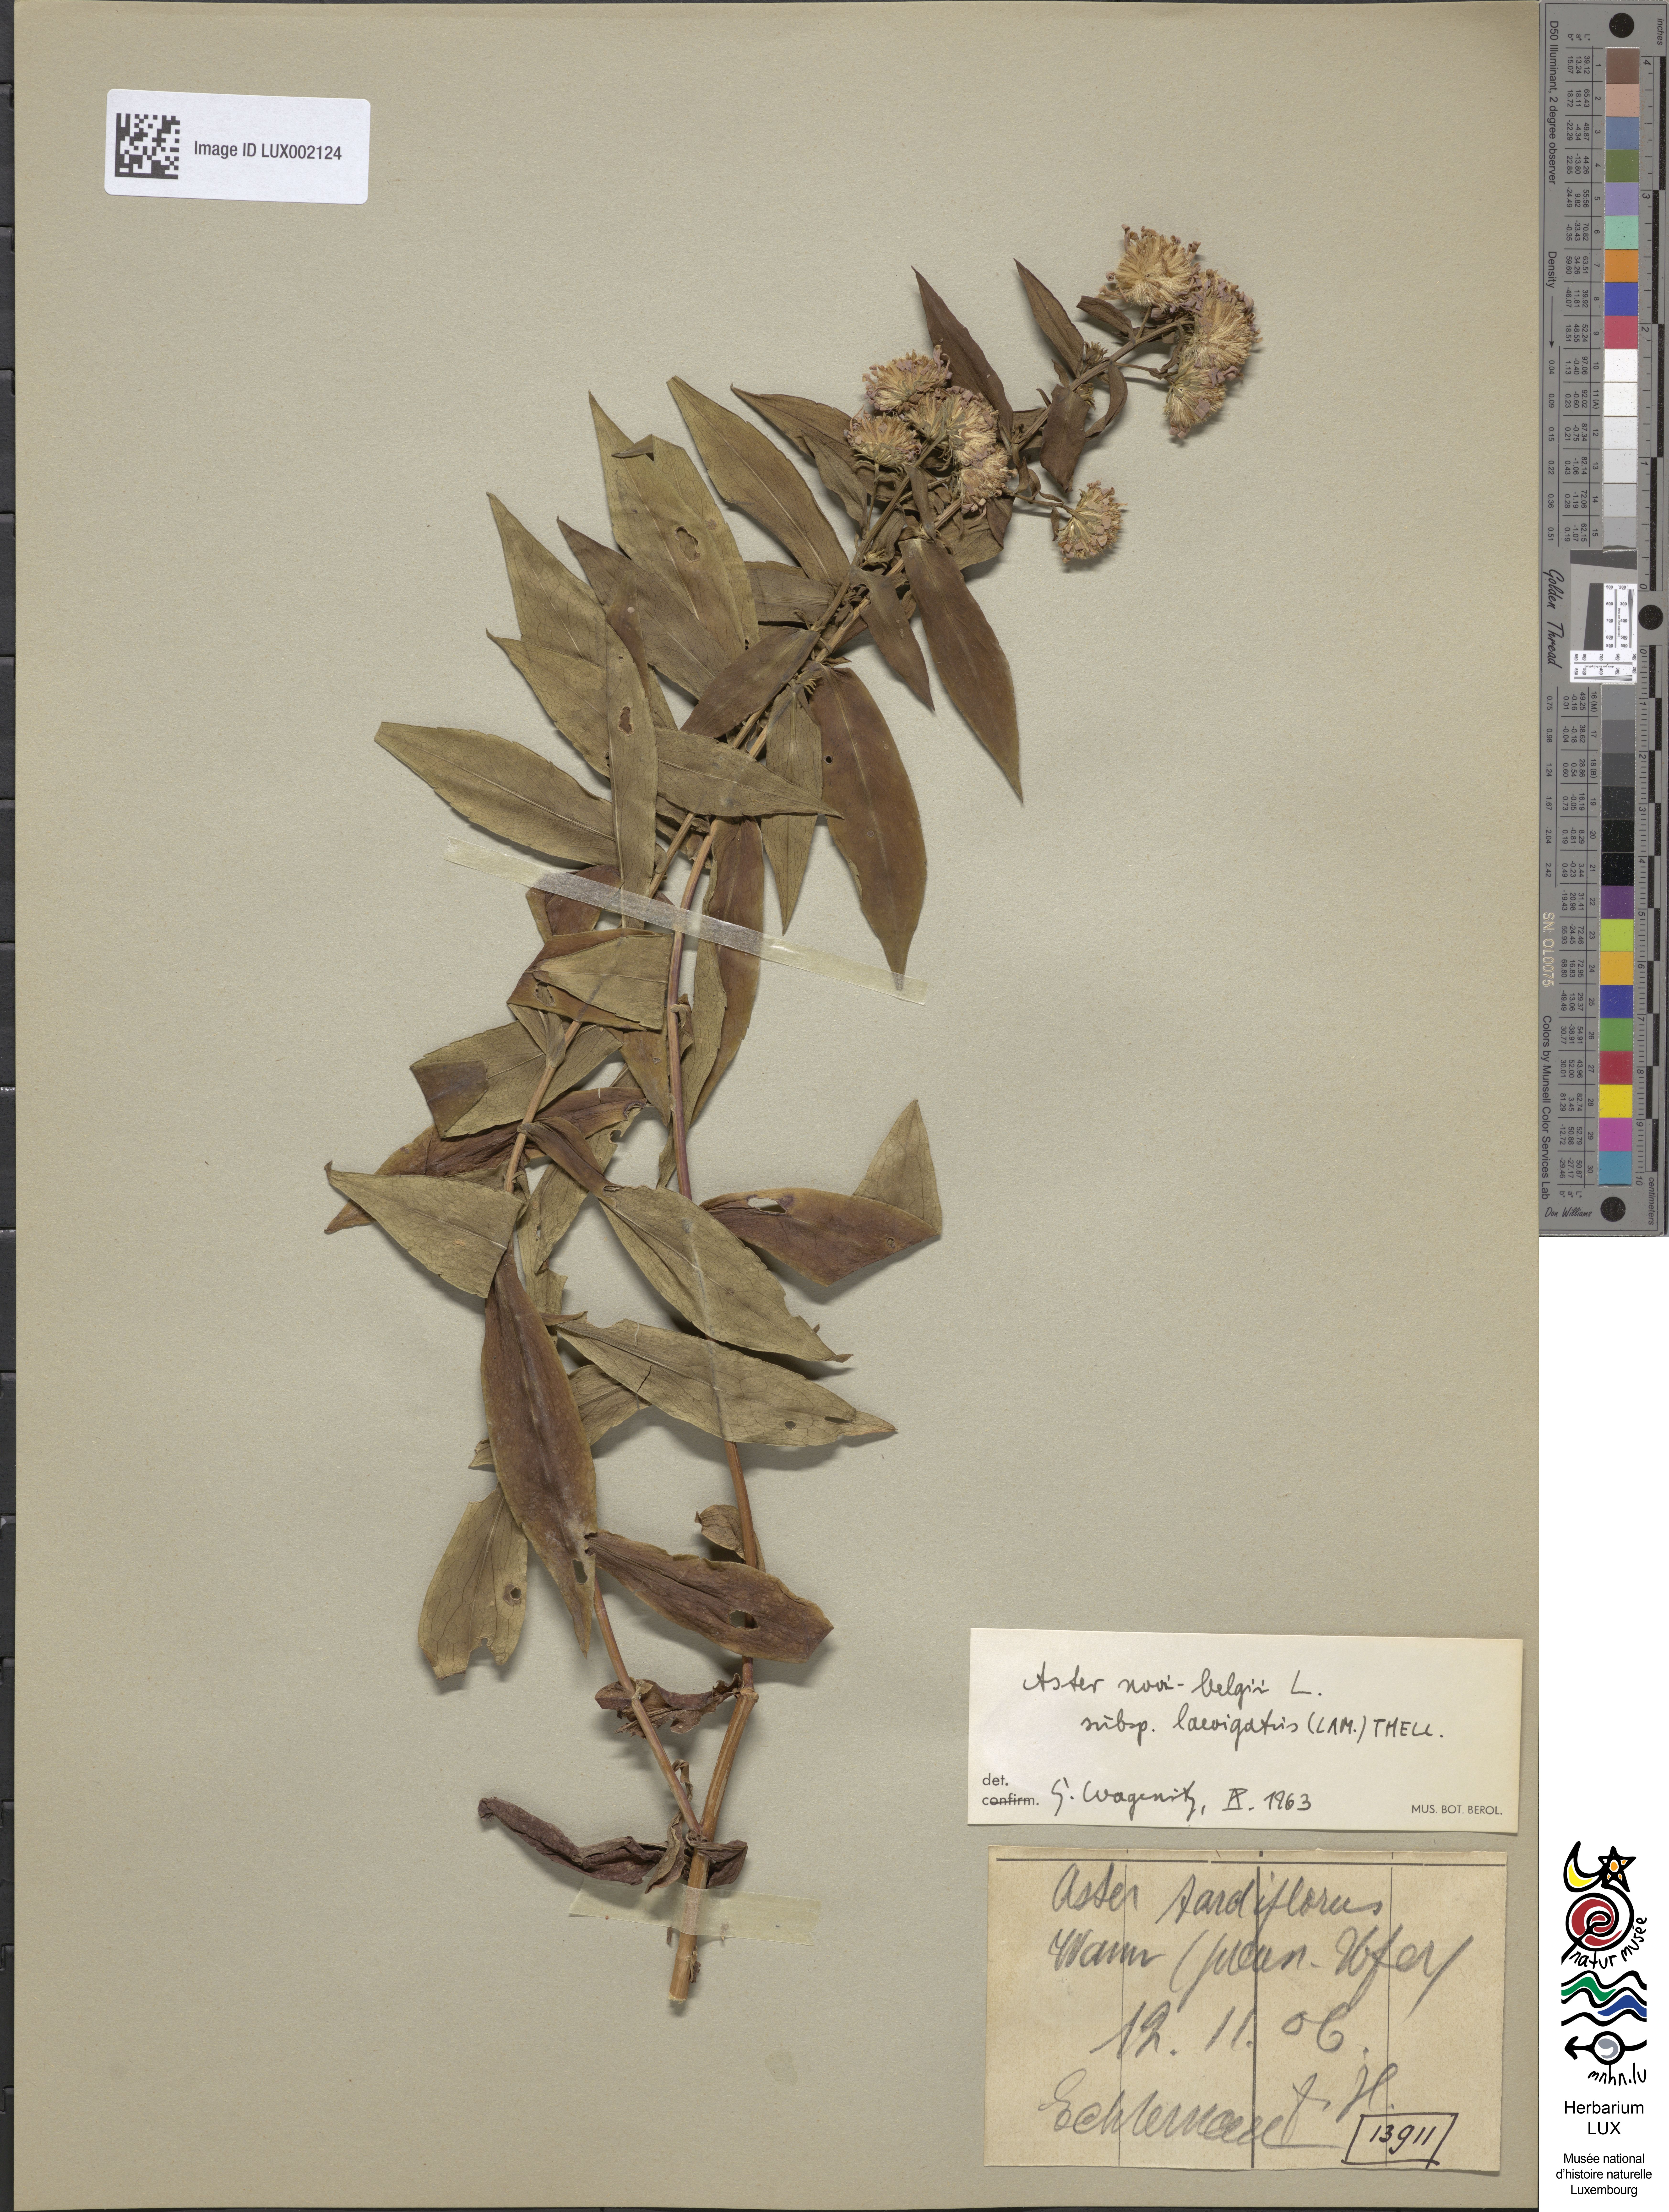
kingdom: Plantae
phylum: Tracheophyta
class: Magnoliopsida
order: Asterales
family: Asteraceae
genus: Symphyotrichum
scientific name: Symphyotrichum novi-belgii
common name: Michaelmas daisy
